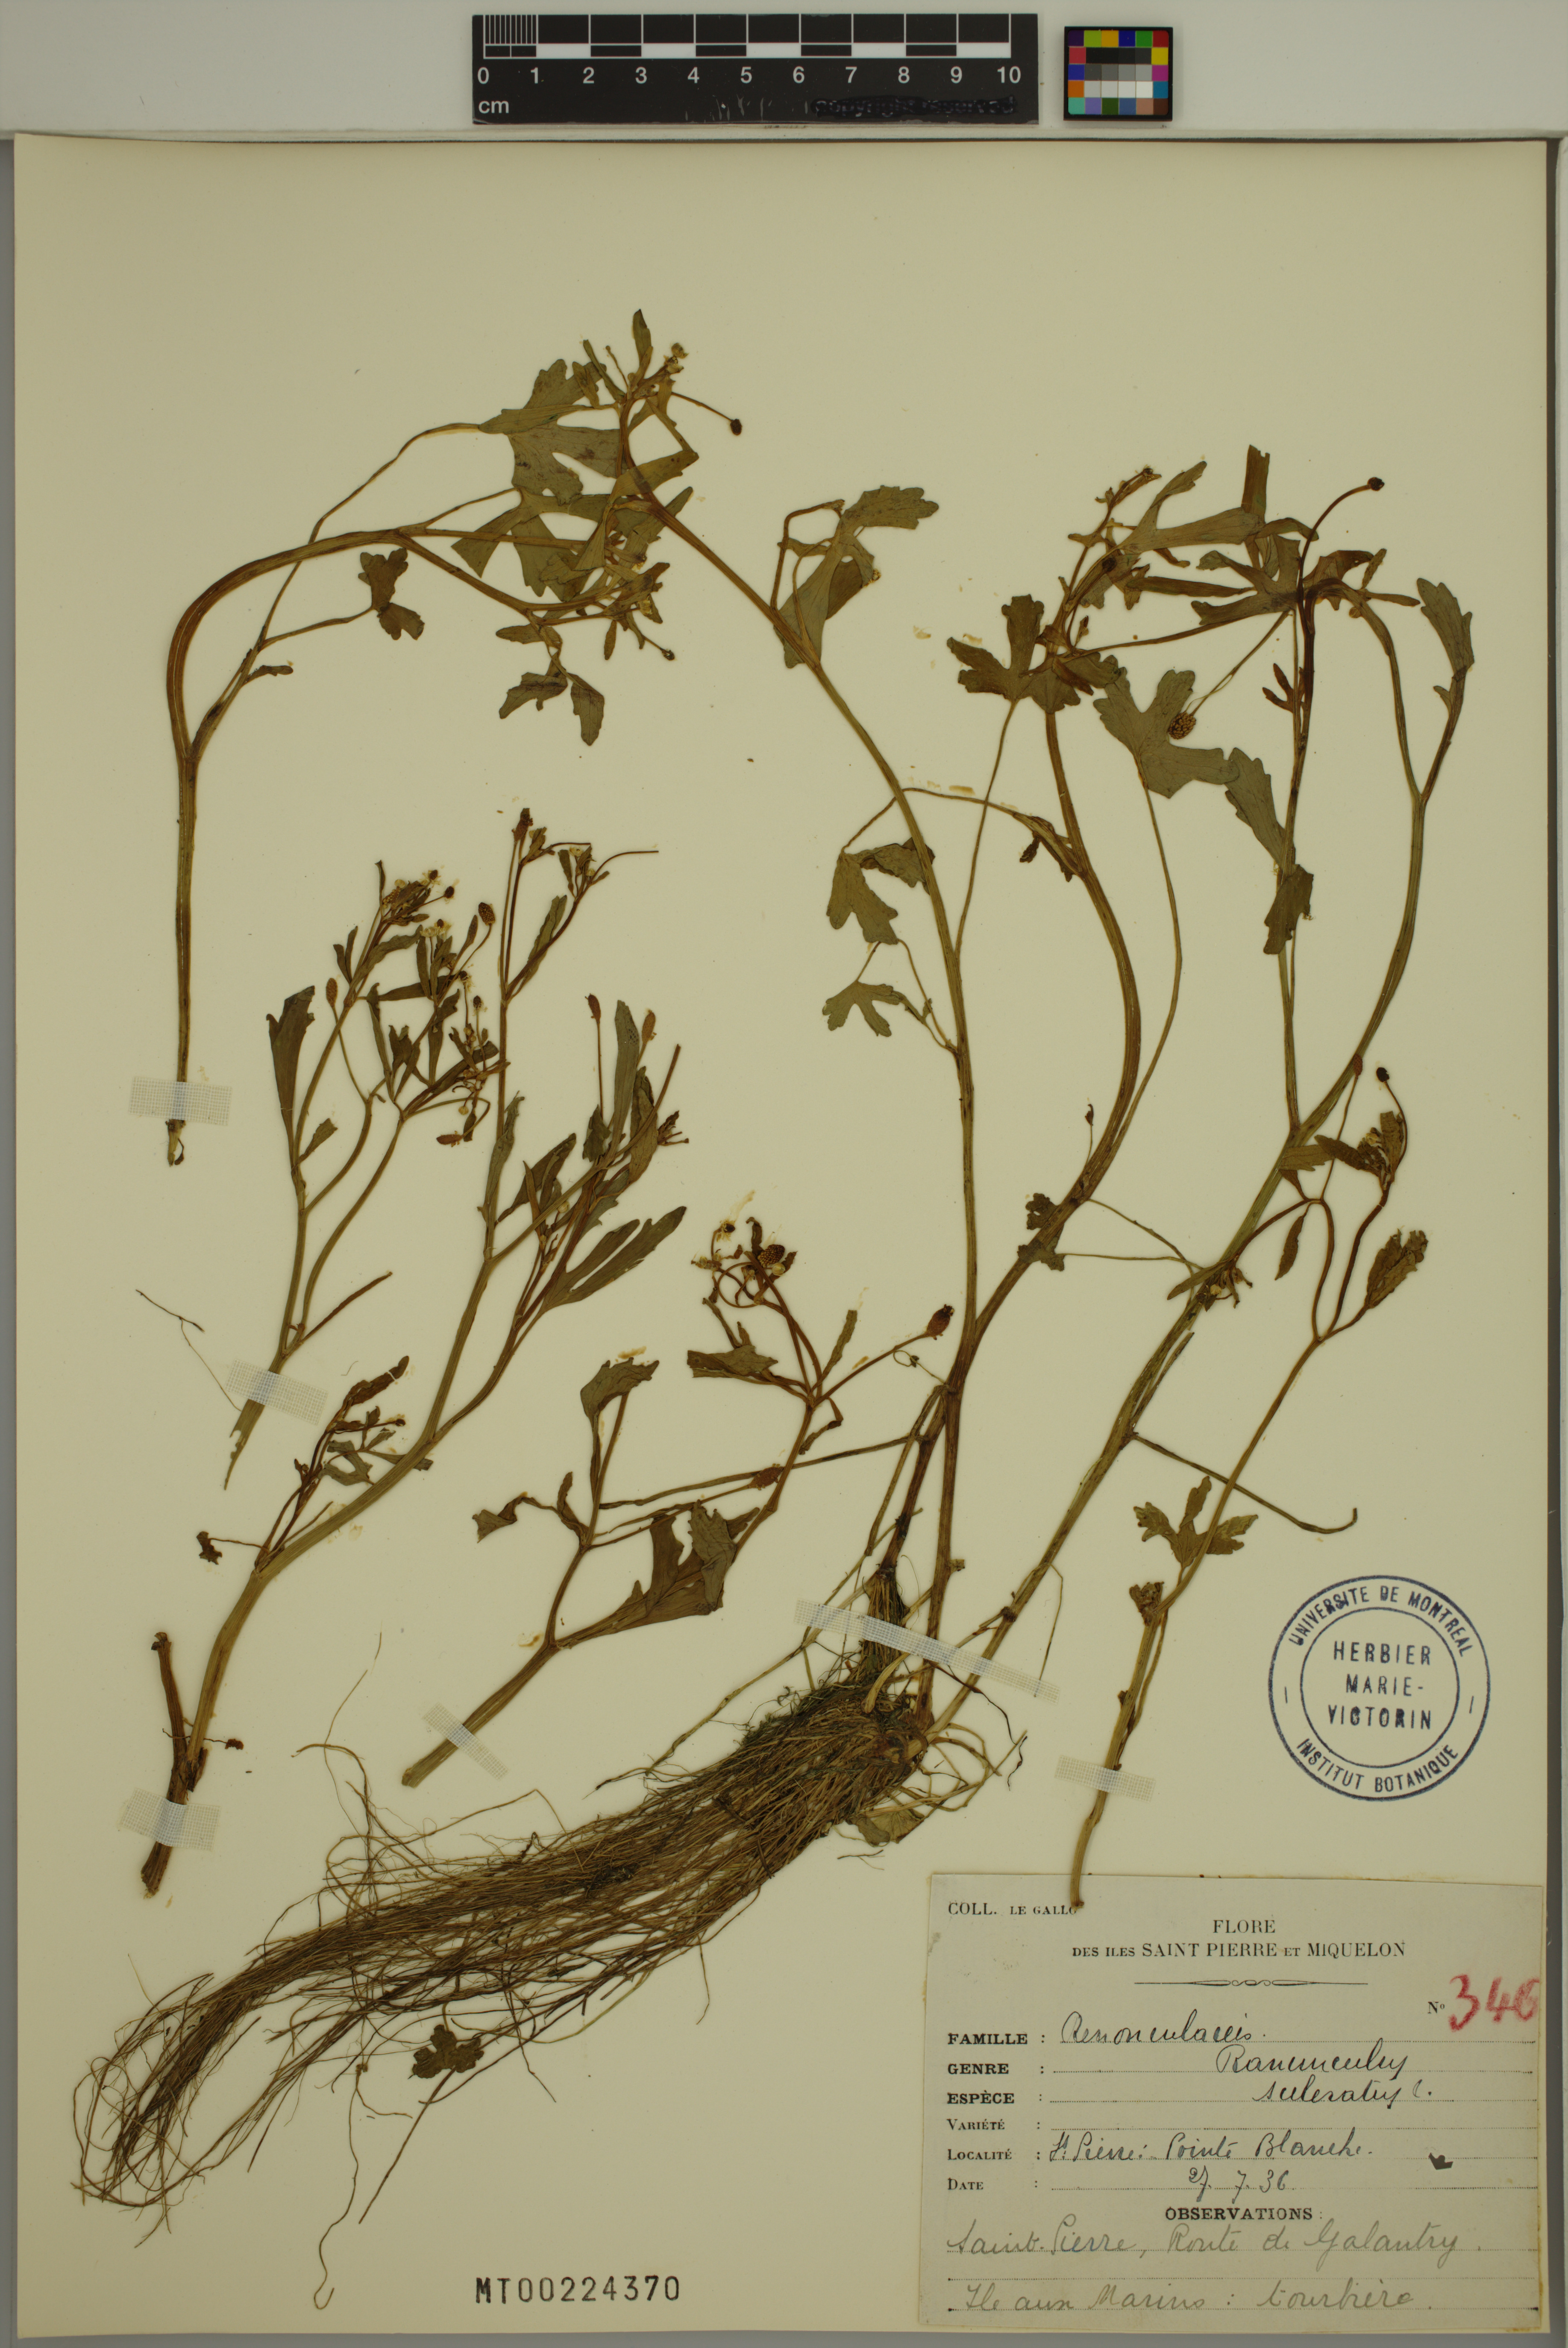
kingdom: Plantae
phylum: Tracheophyta
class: Magnoliopsida
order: Ranunculales
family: Ranunculaceae
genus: Ranunculus
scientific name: Ranunculus sceleratus
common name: Celery-leaved buttercup
